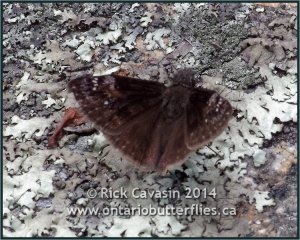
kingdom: Animalia
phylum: Arthropoda
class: Insecta
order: Lepidoptera
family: Hesperiidae
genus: Gesta
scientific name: Gesta
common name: Columbine Duskywing
